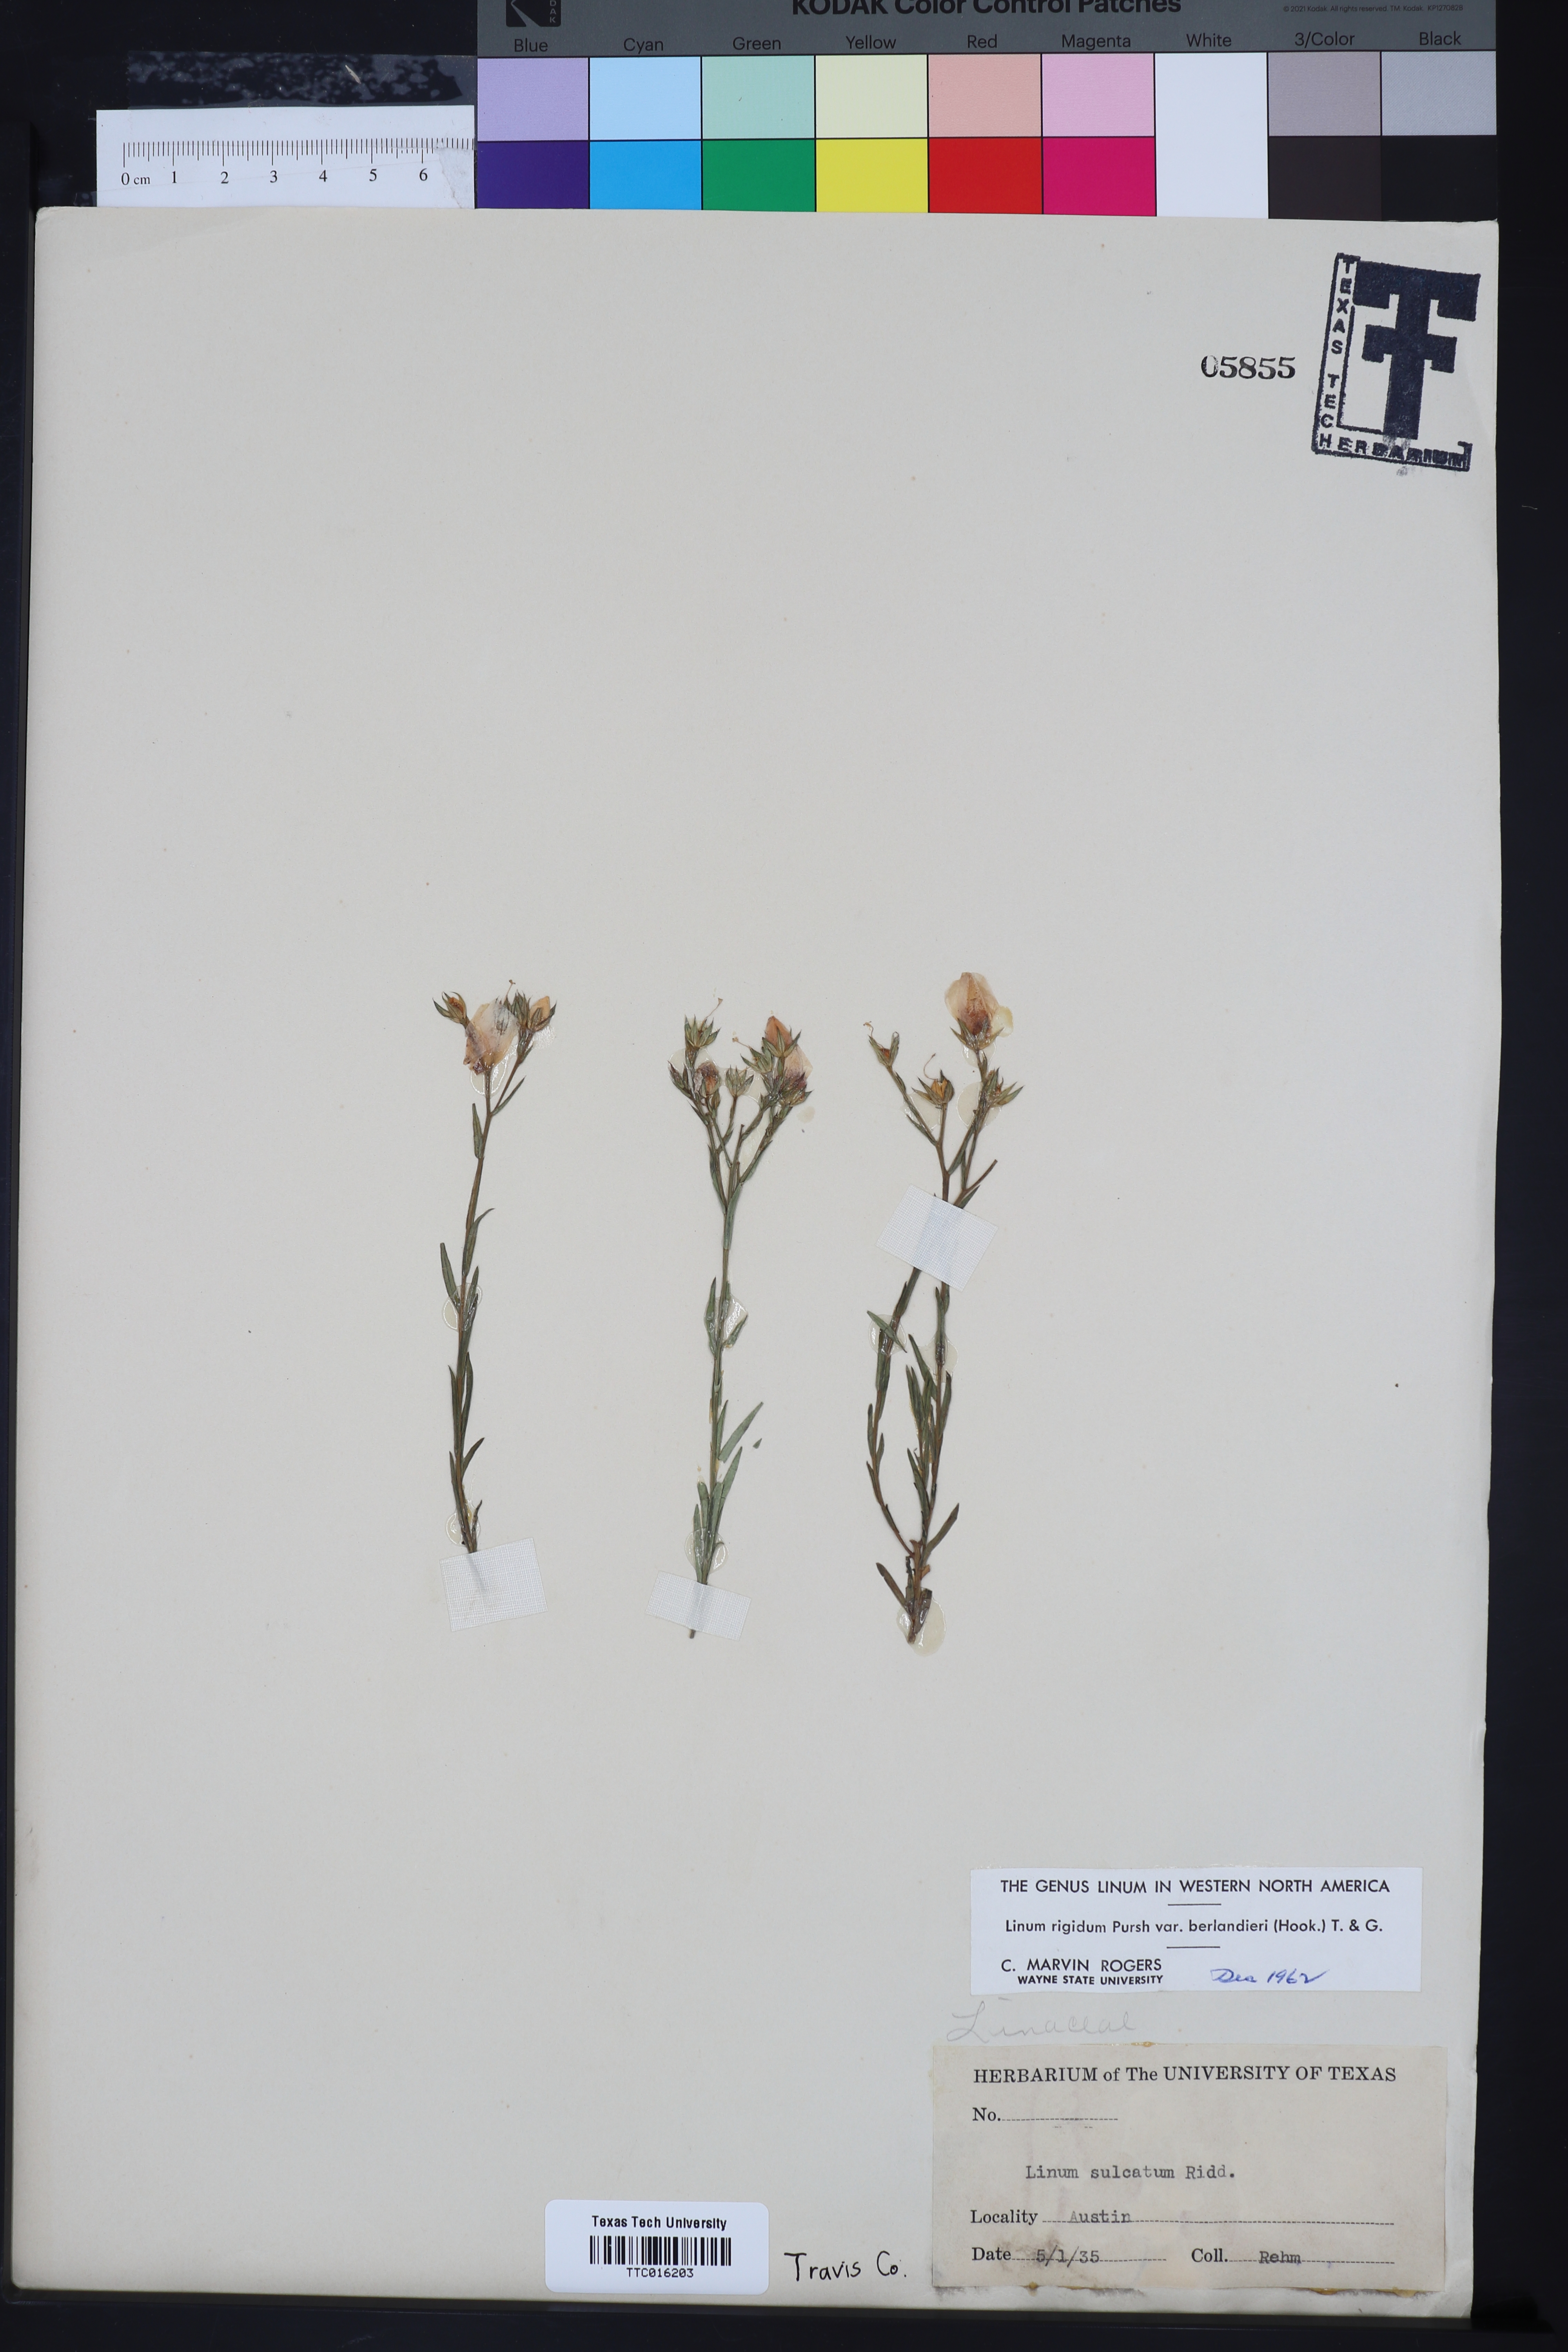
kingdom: Plantae
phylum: Tracheophyta
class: Magnoliopsida
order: Malpighiales
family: Linaceae
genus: Linum
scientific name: Linum berlandieri
